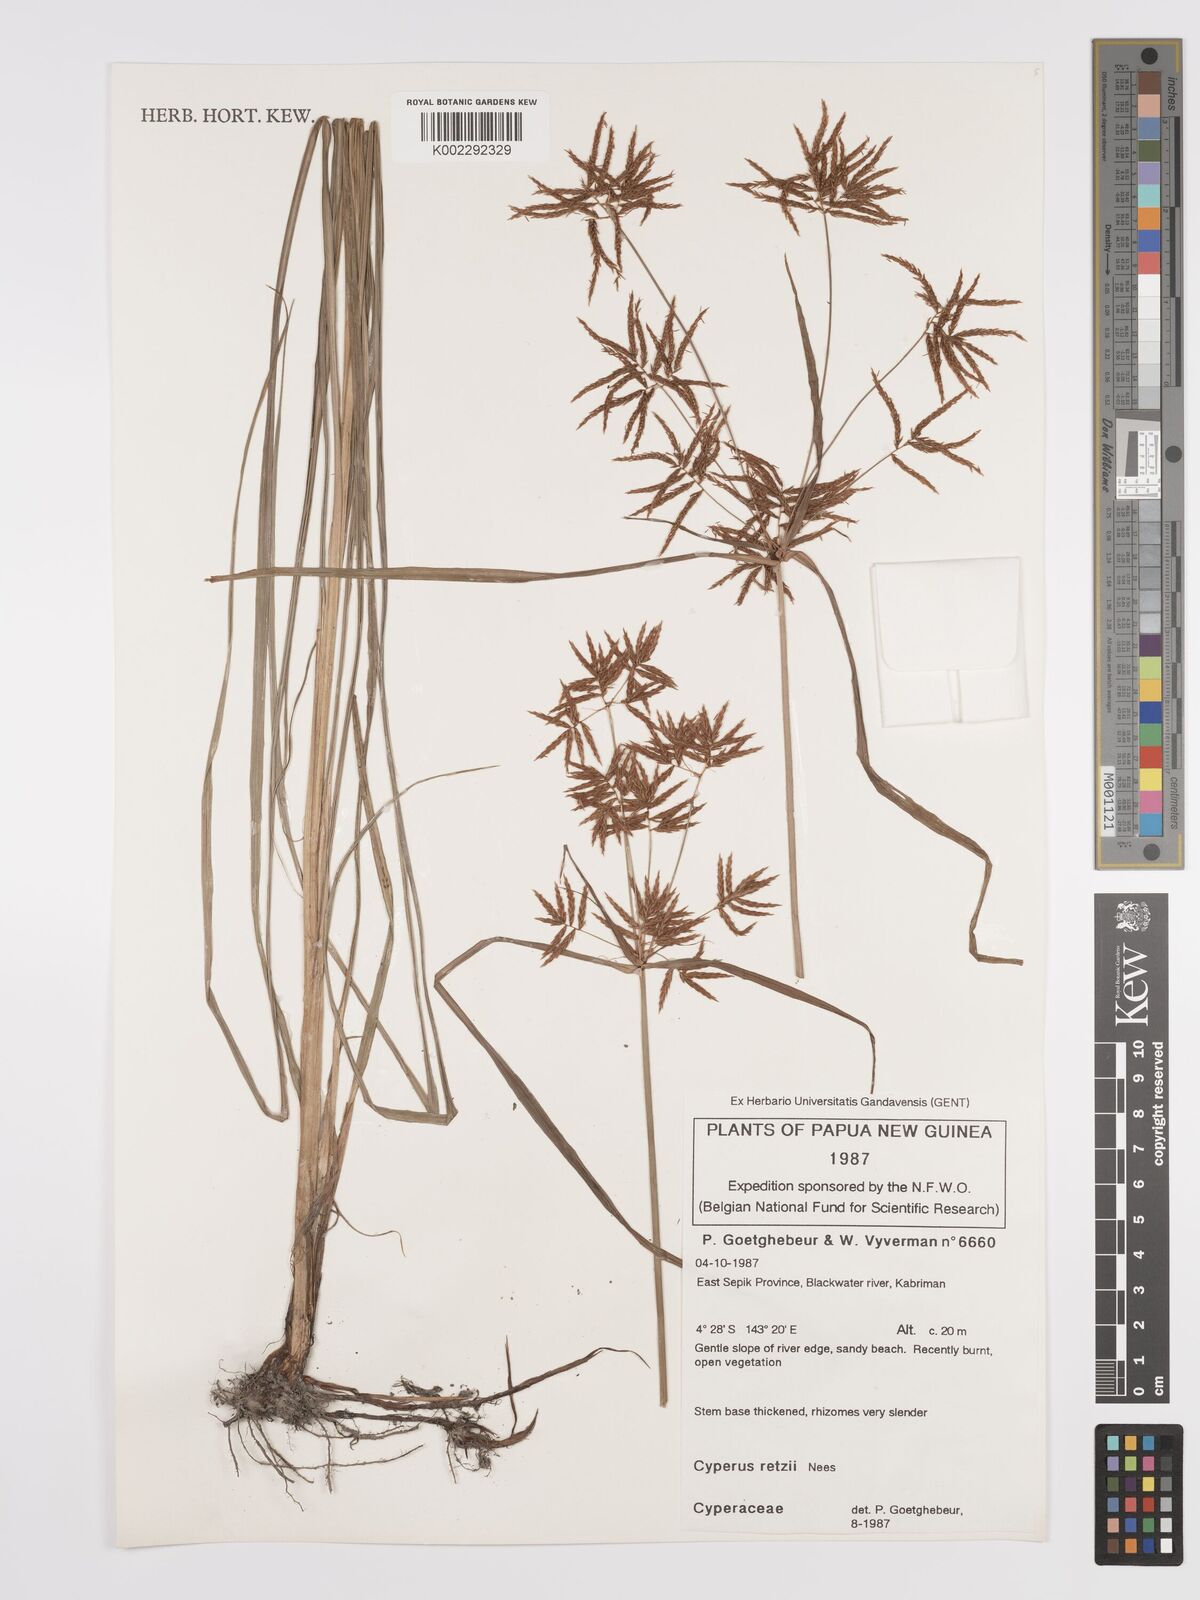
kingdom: Plantae
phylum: Tracheophyta
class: Liliopsida
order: Poales
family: Cyperaceae
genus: Cyperus
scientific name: Cyperus bifax
